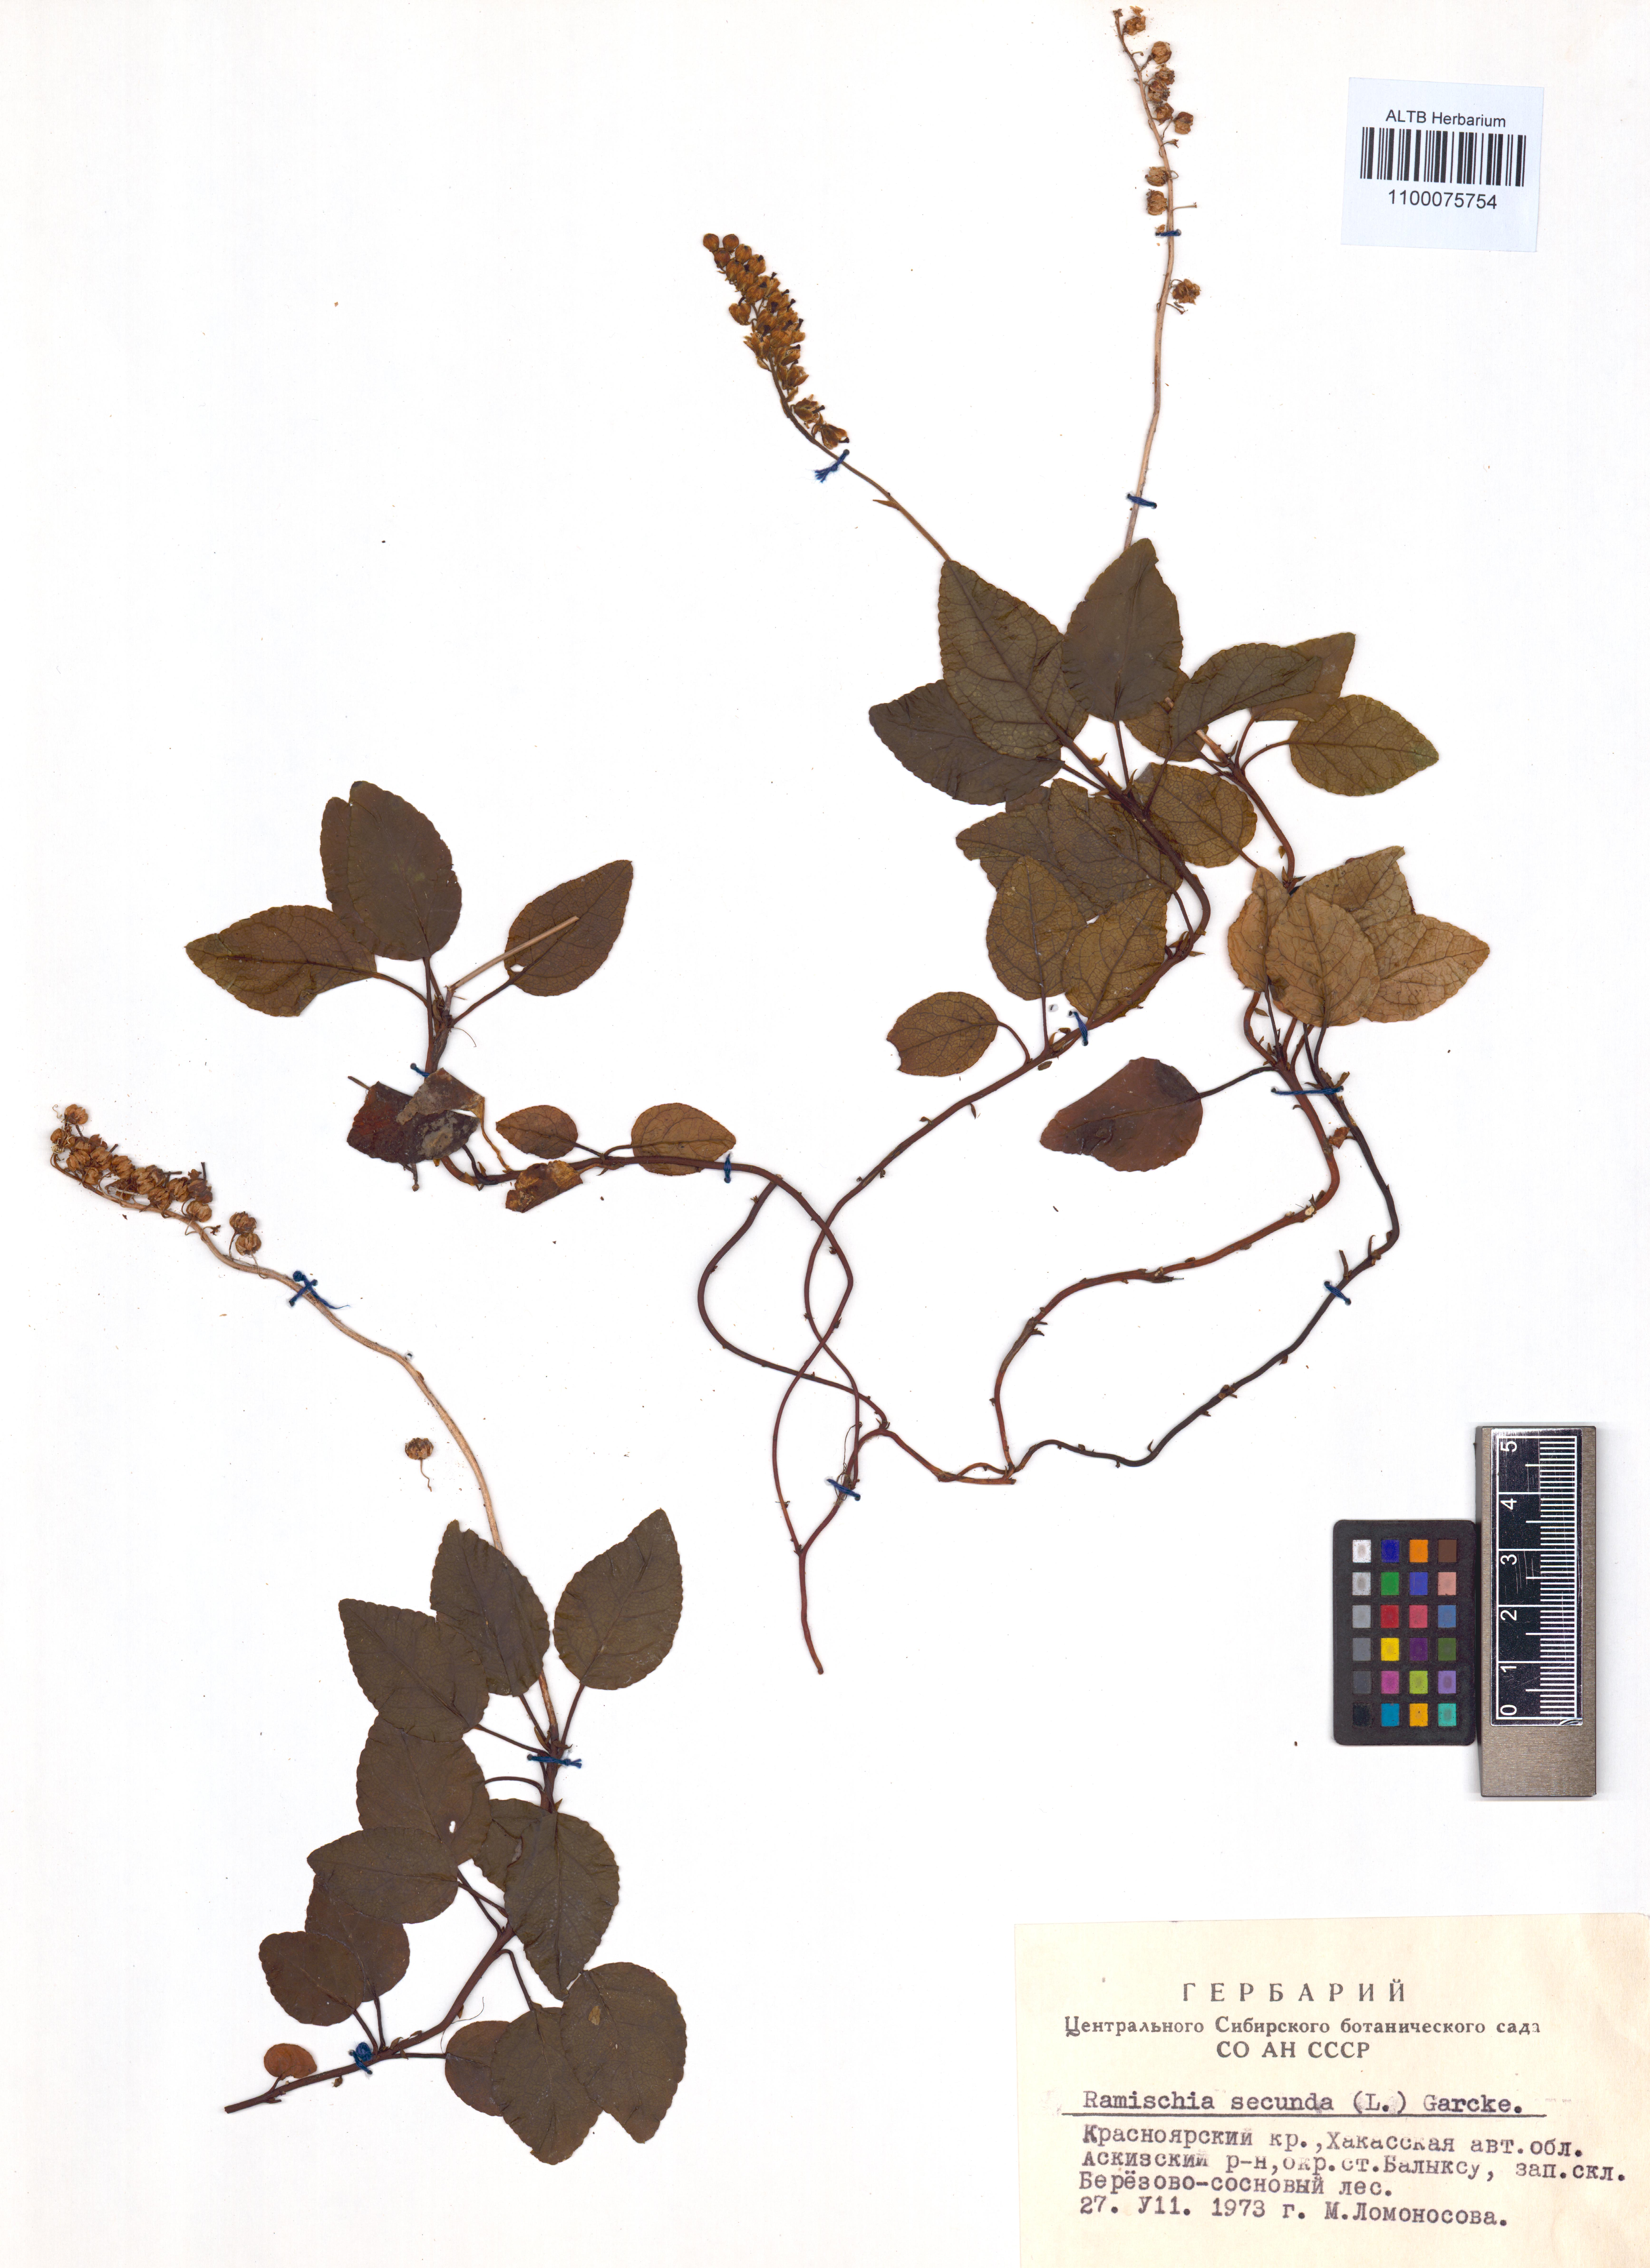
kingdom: Plantae
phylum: Tracheophyta
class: Magnoliopsida
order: Ericales
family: Ericaceae
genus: Orthilia
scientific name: Orthilia secunda
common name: One-sided orthilia
